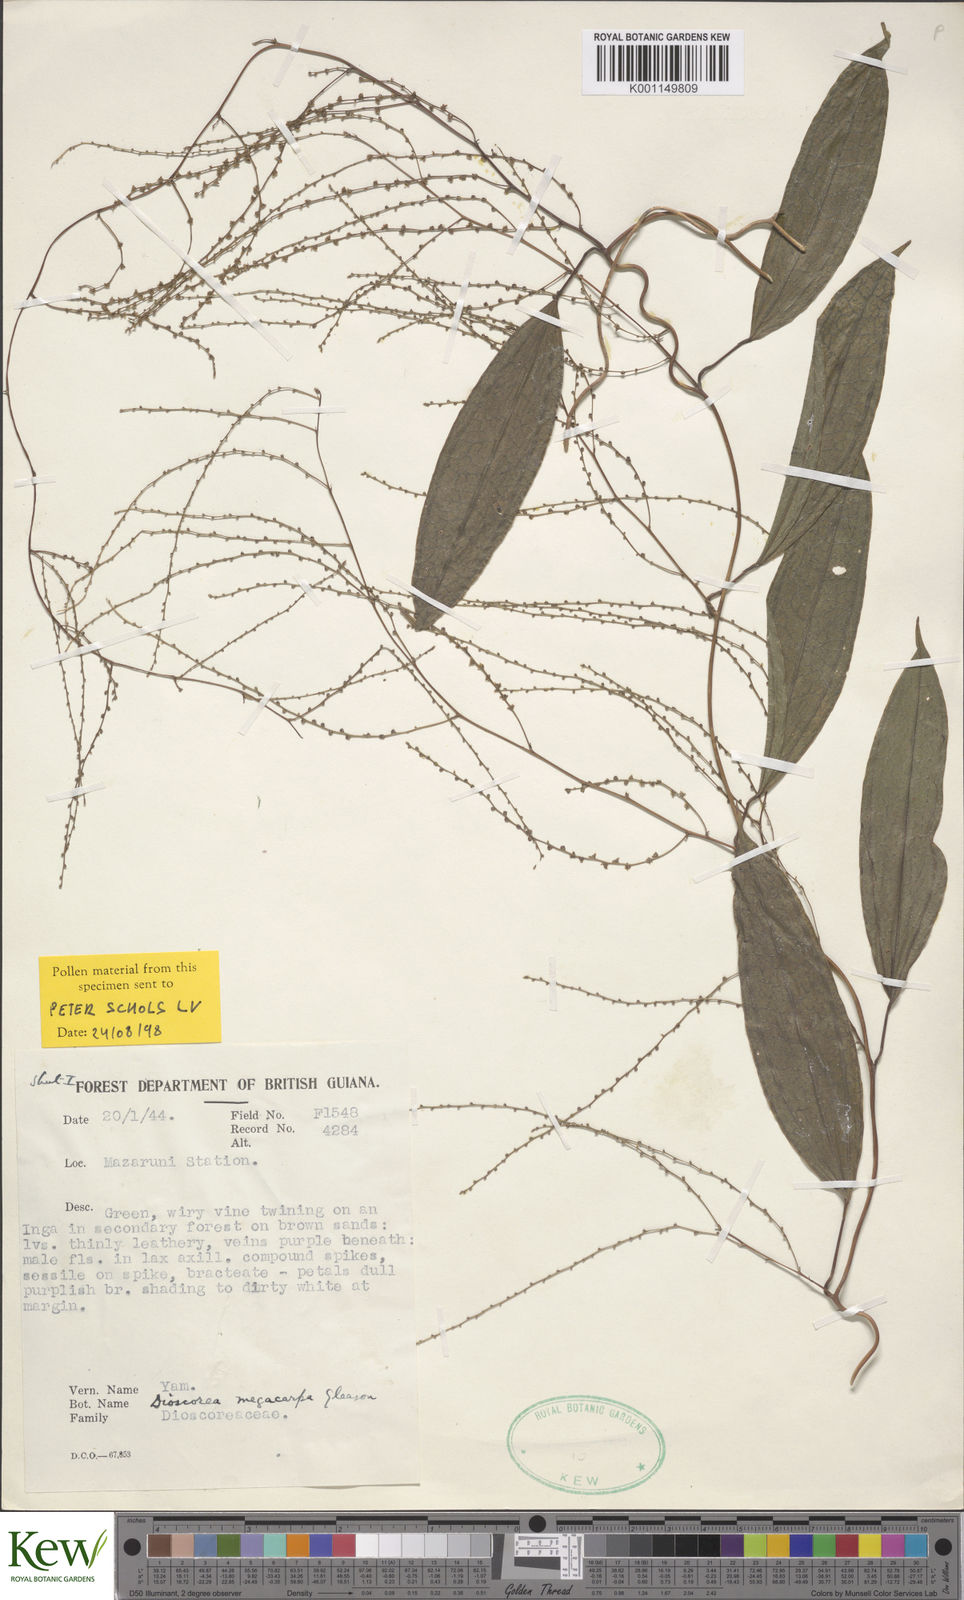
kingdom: Plantae
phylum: Tracheophyta
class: Liliopsida
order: Dioscoreales
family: Dioscoreaceae
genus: Dioscorea
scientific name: Dioscorea
